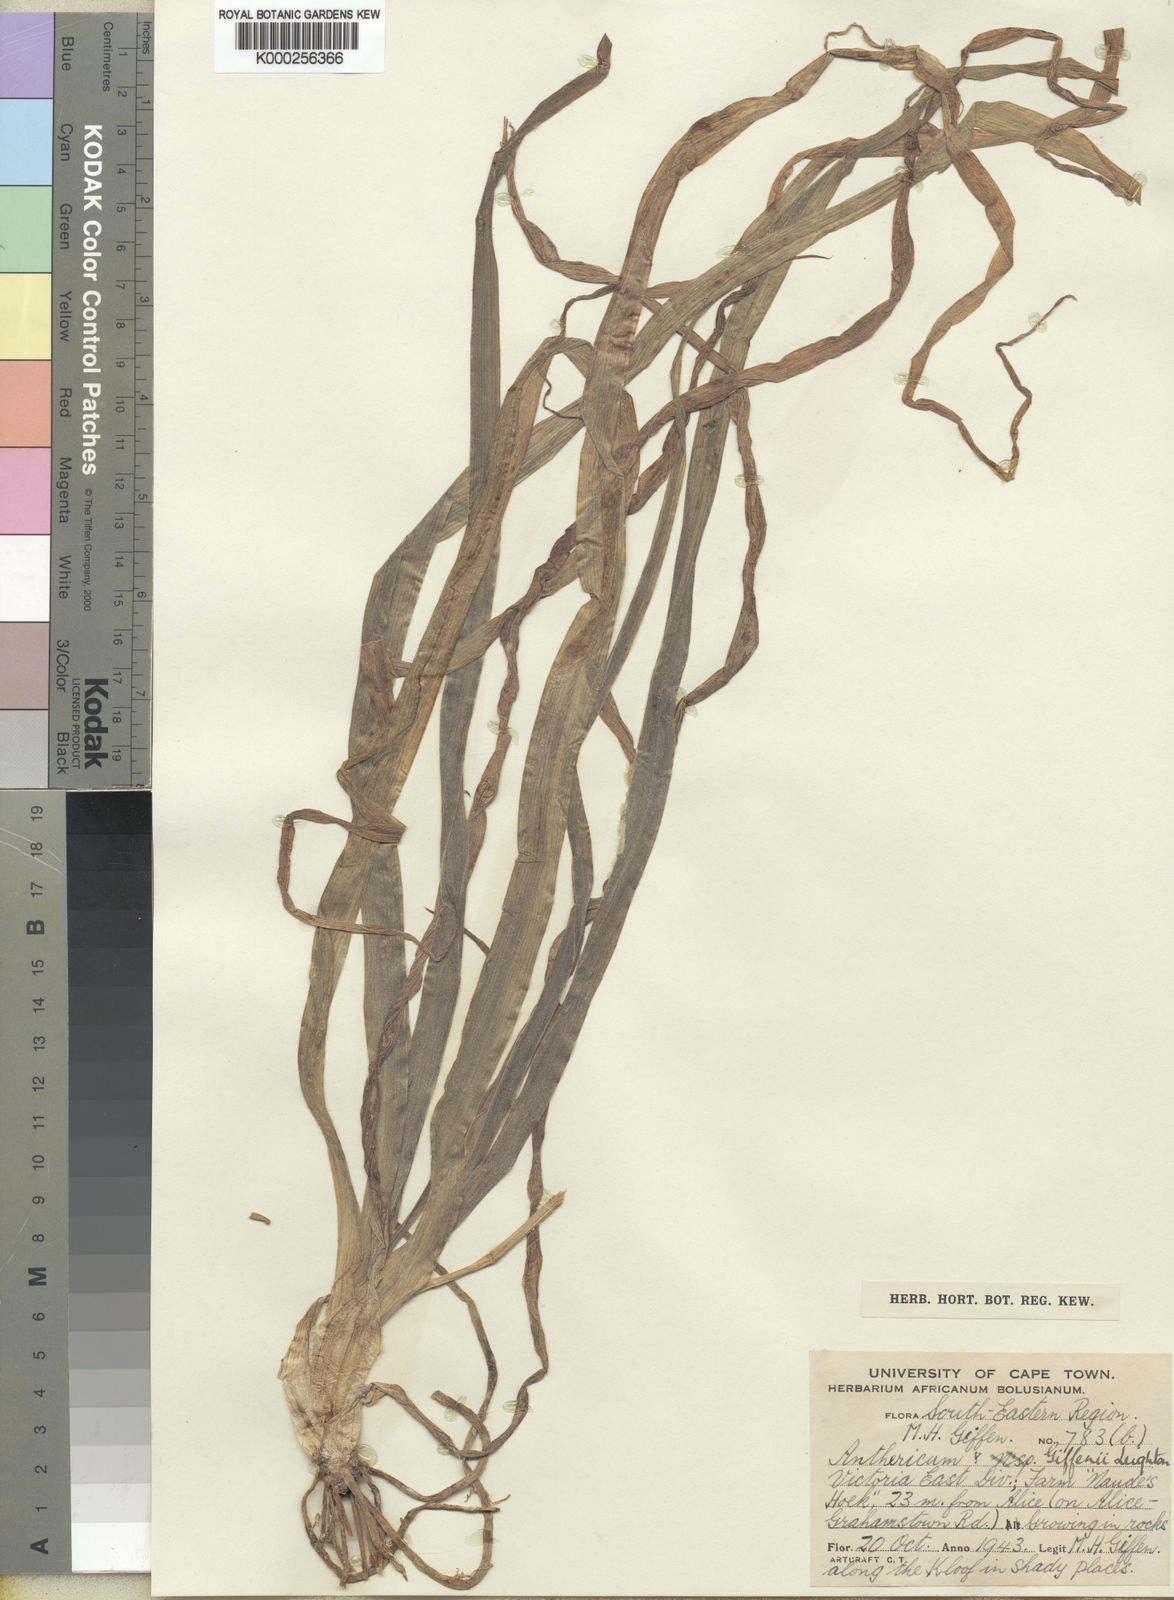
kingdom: Plantae
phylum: Tracheophyta
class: Liliopsida
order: Asparagales
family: Asphodelaceae
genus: Trachyandra
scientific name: Trachyandra giffenii
